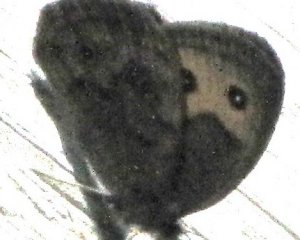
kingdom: Animalia
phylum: Arthropoda
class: Insecta
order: Lepidoptera
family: Nymphalidae
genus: Cercyonis
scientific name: Cercyonis pegala
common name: Common Wood-Nymph
